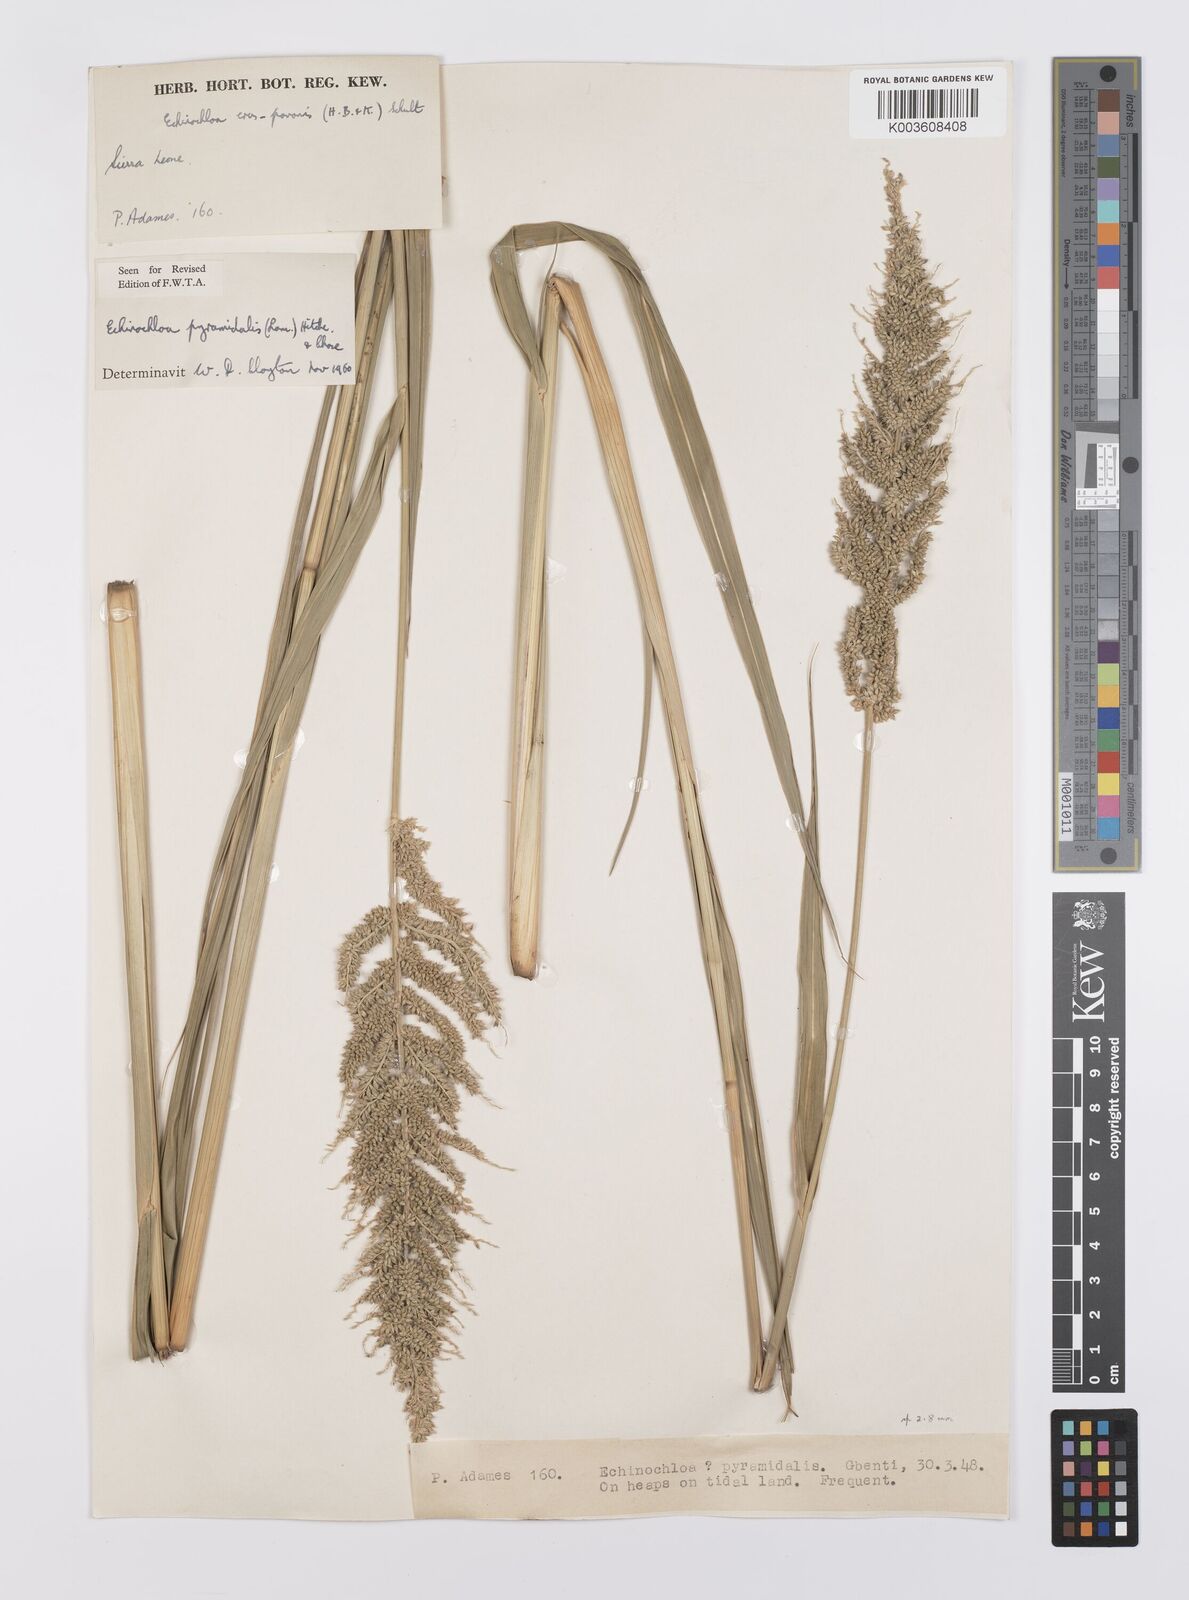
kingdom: Plantae
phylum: Tracheophyta
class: Liliopsida
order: Poales
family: Poaceae
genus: Echinochloa
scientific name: Echinochloa pyramidalis
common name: Antelope grass
